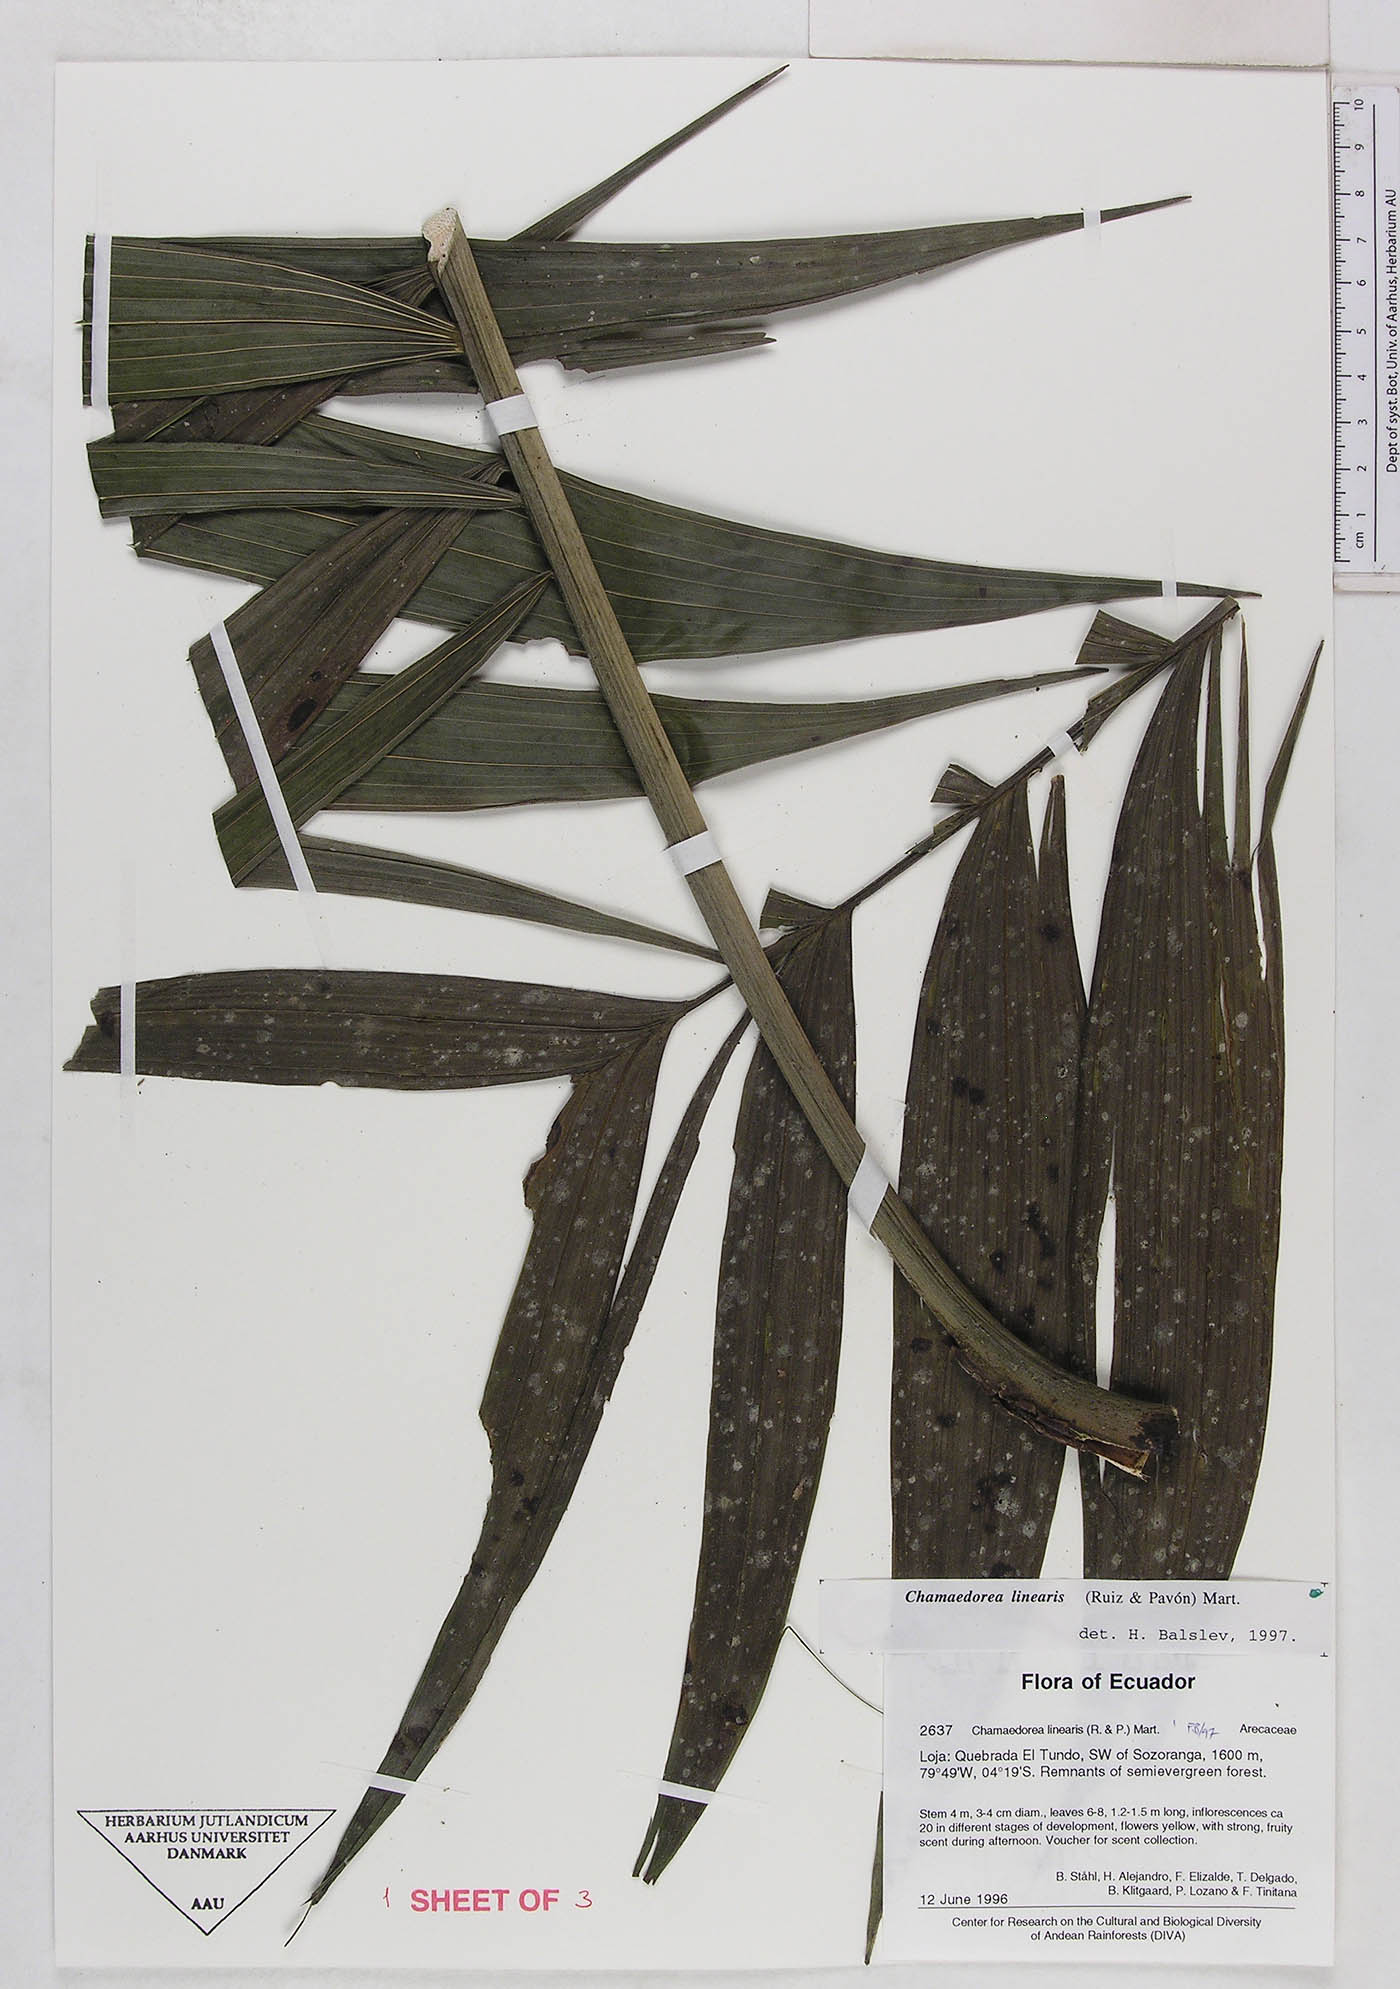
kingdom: Plantae
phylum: Tracheophyta
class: Liliopsida
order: Arecales
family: Arecaceae
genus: Chamaedorea
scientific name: Chamaedorea linearis
